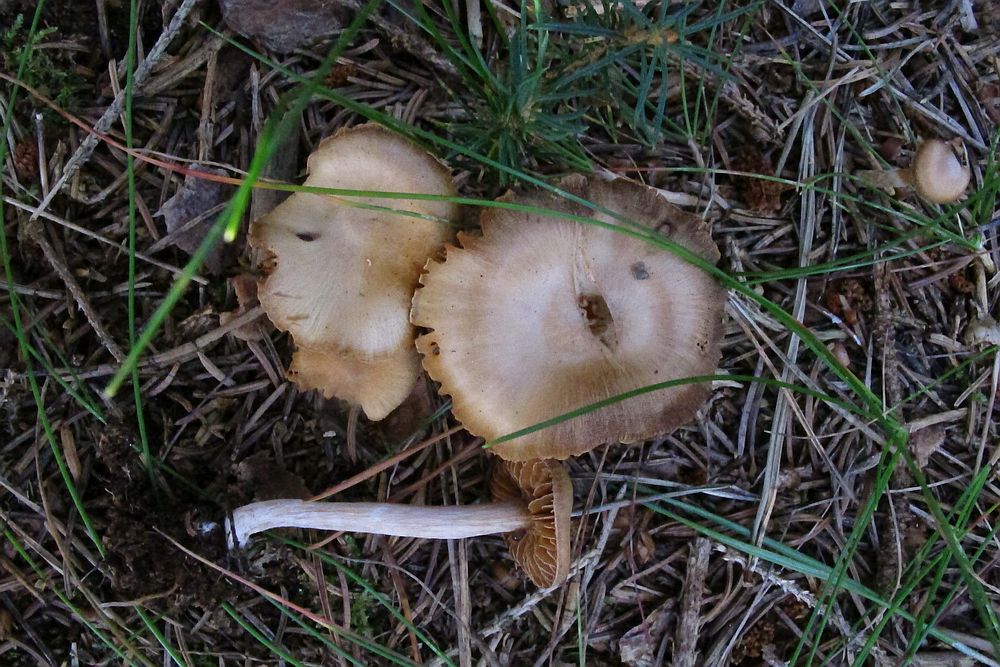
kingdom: Fungi
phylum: Basidiomycota
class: Agaricomycetes
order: Agaricales
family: Cortinariaceae
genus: Cortinarius
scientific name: Cortinarius
